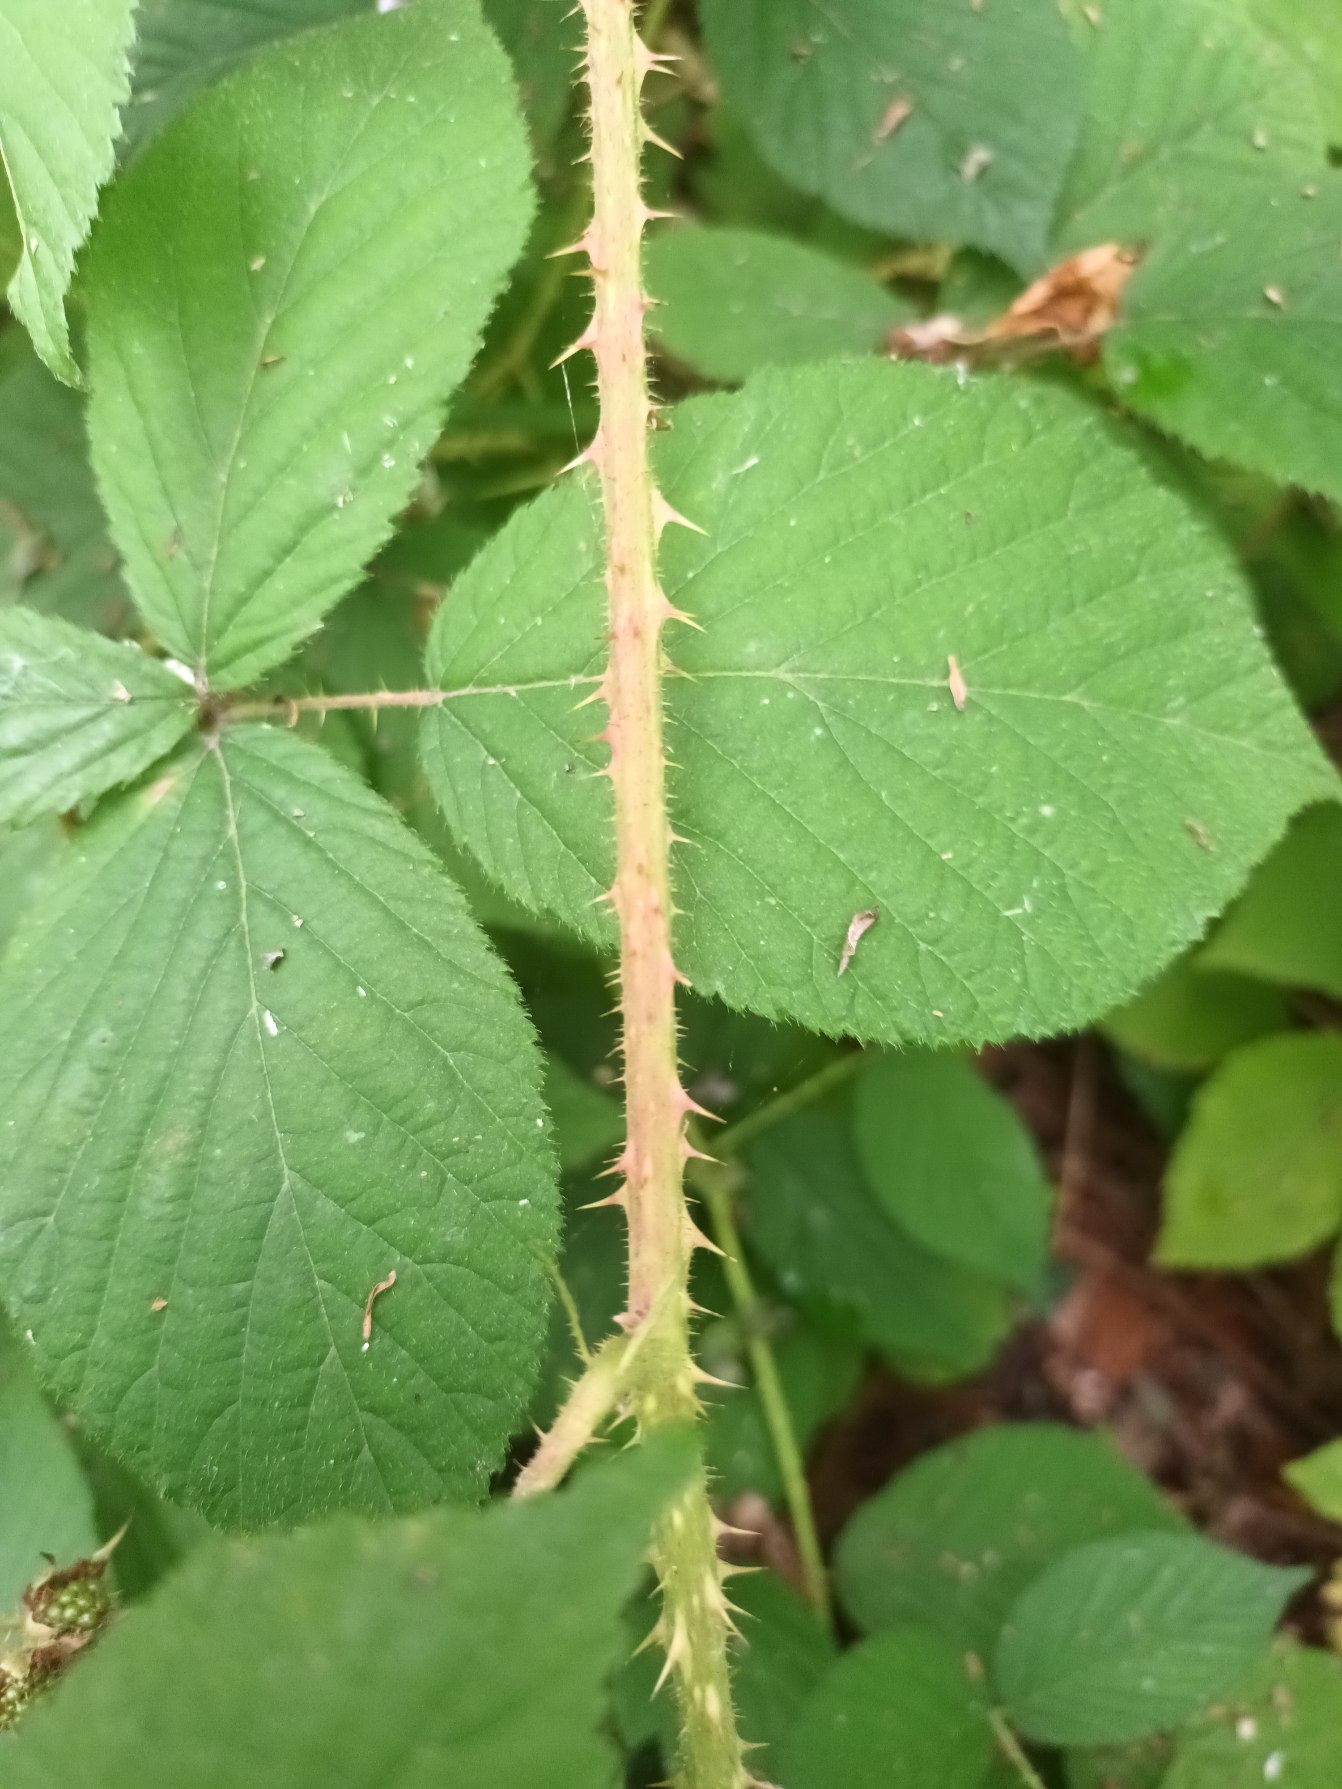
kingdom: Plantae
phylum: Tracheophyta
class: Magnoliopsida
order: Rosales
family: Rosaceae
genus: Rubus
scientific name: Rubus pallidus
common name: Blegblomstret brombær
